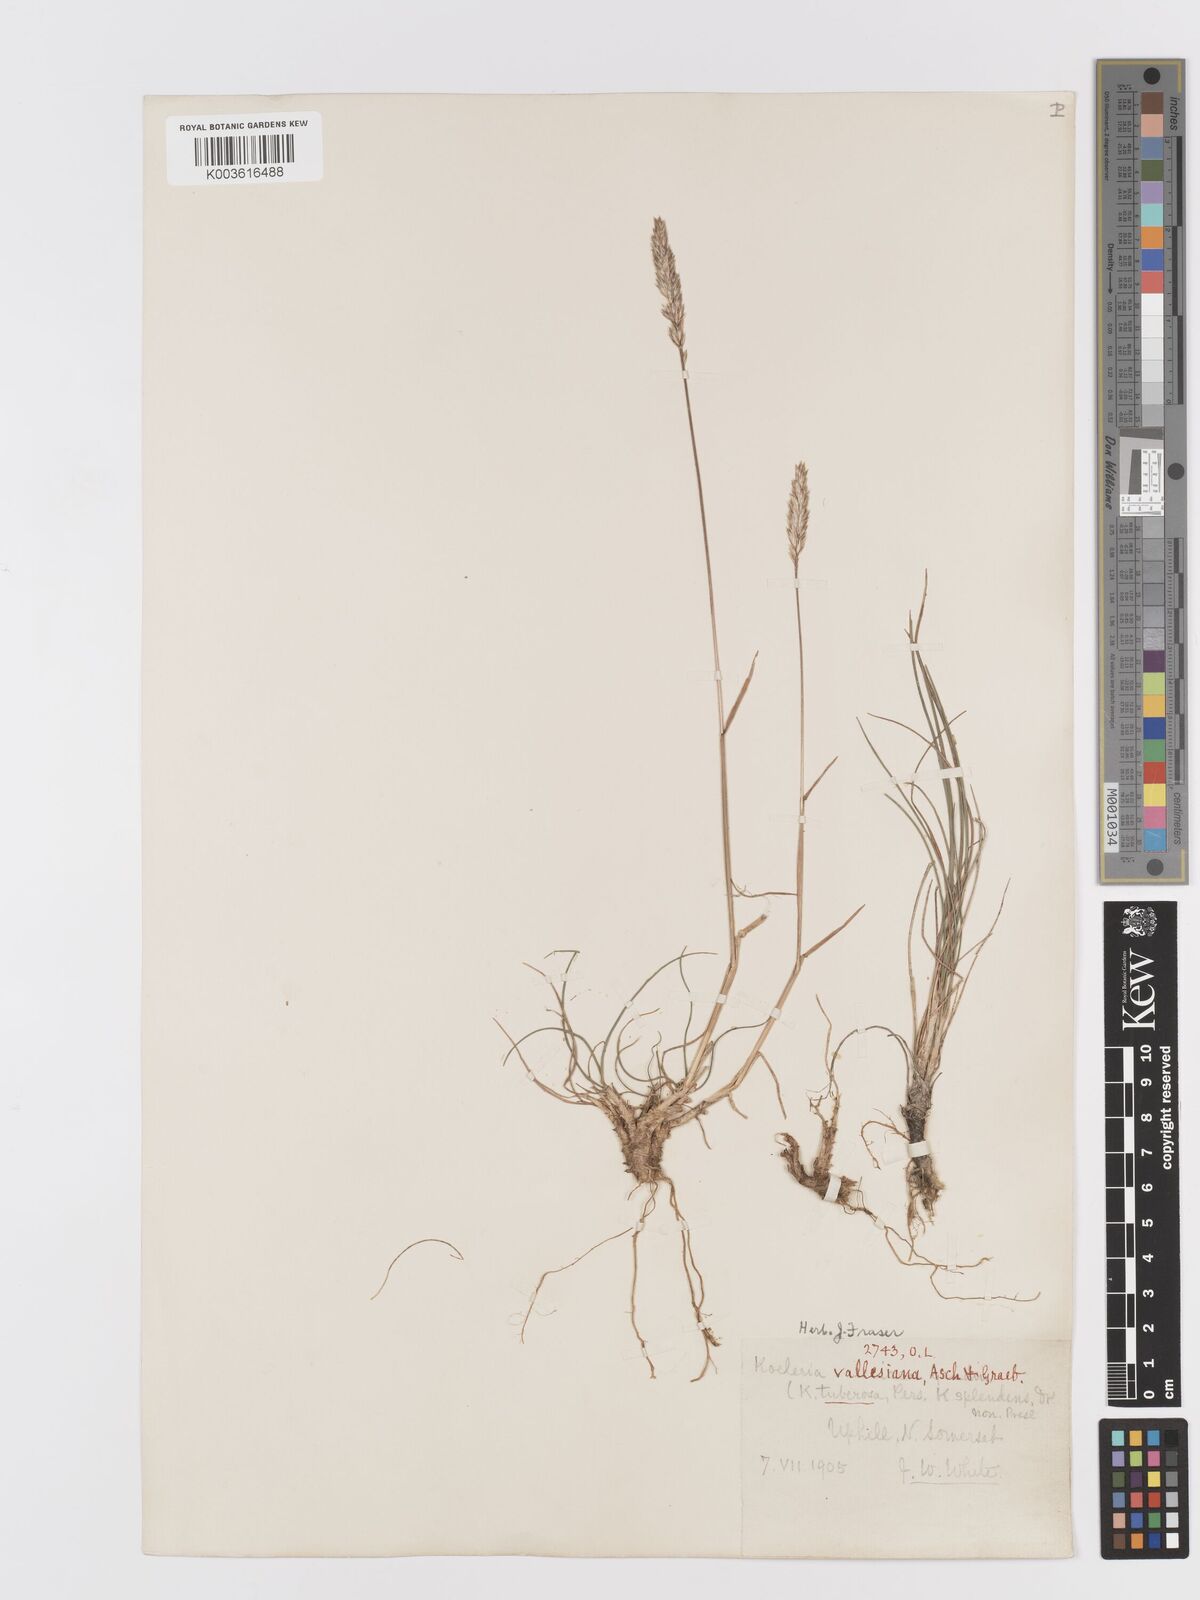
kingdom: Plantae
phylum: Tracheophyta
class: Liliopsida
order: Poales
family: Poaceae
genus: Koeleria
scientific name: Koeleria vallesiana
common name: Somerset hair-grass
